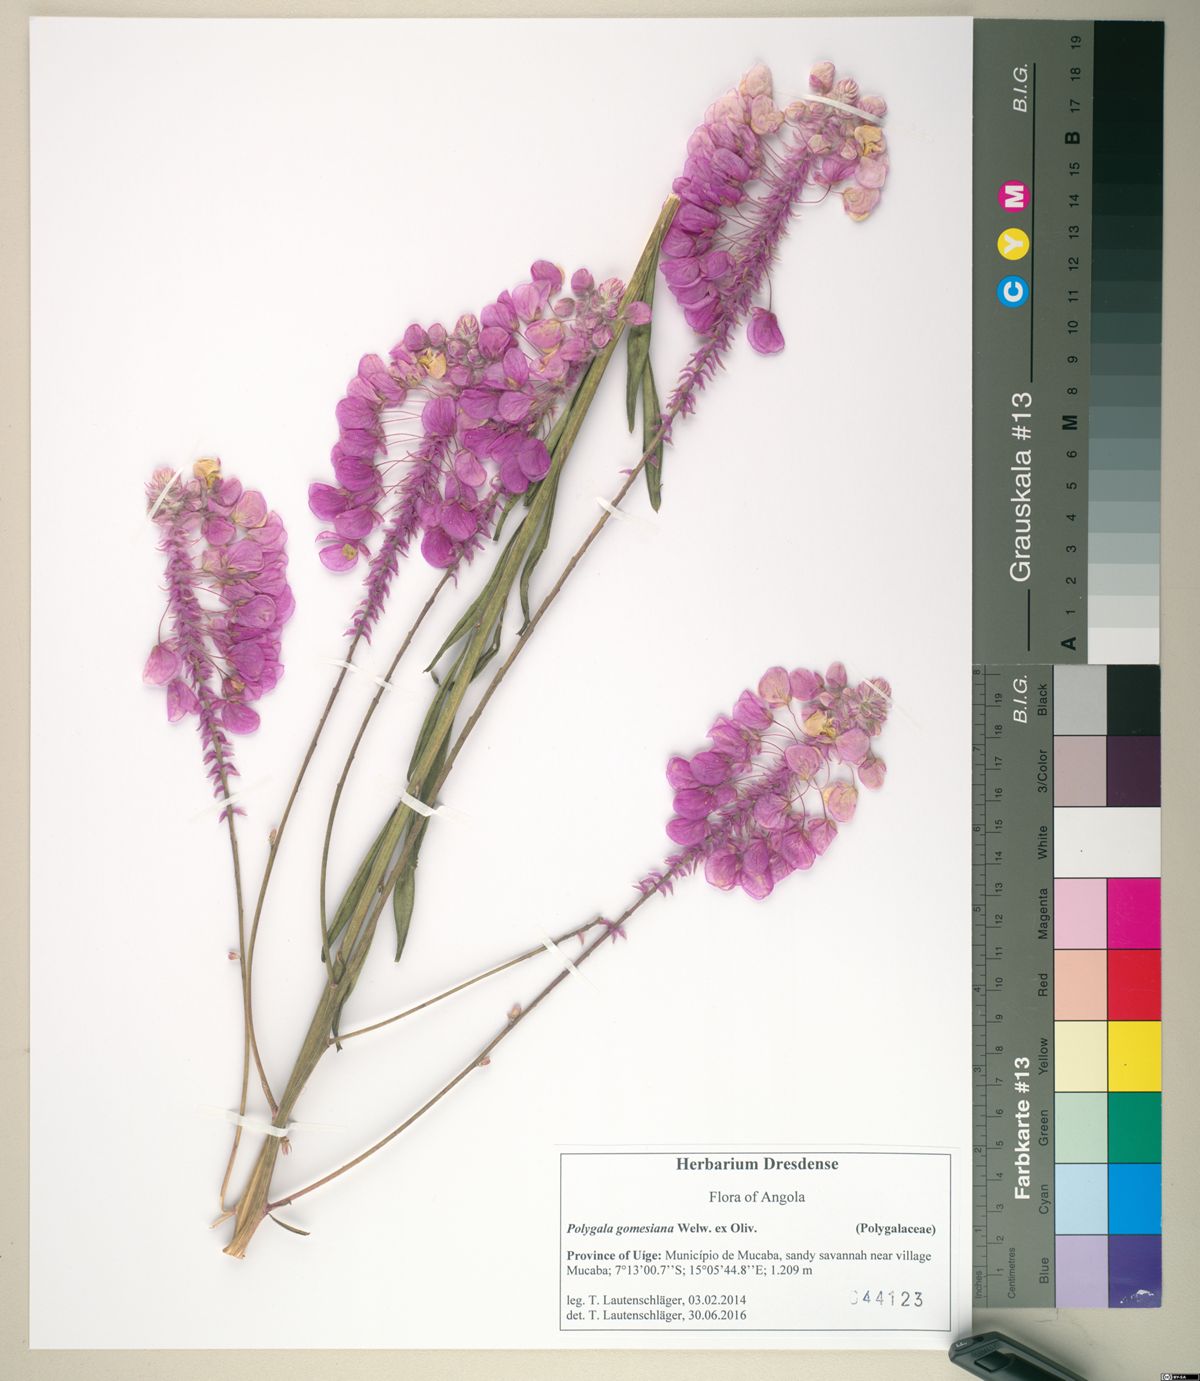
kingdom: Plantae
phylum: Tracheophyta
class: Magnoliopsida
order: Fabales
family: Polygalaceae
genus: Polygala
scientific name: Polygala gomesiana
